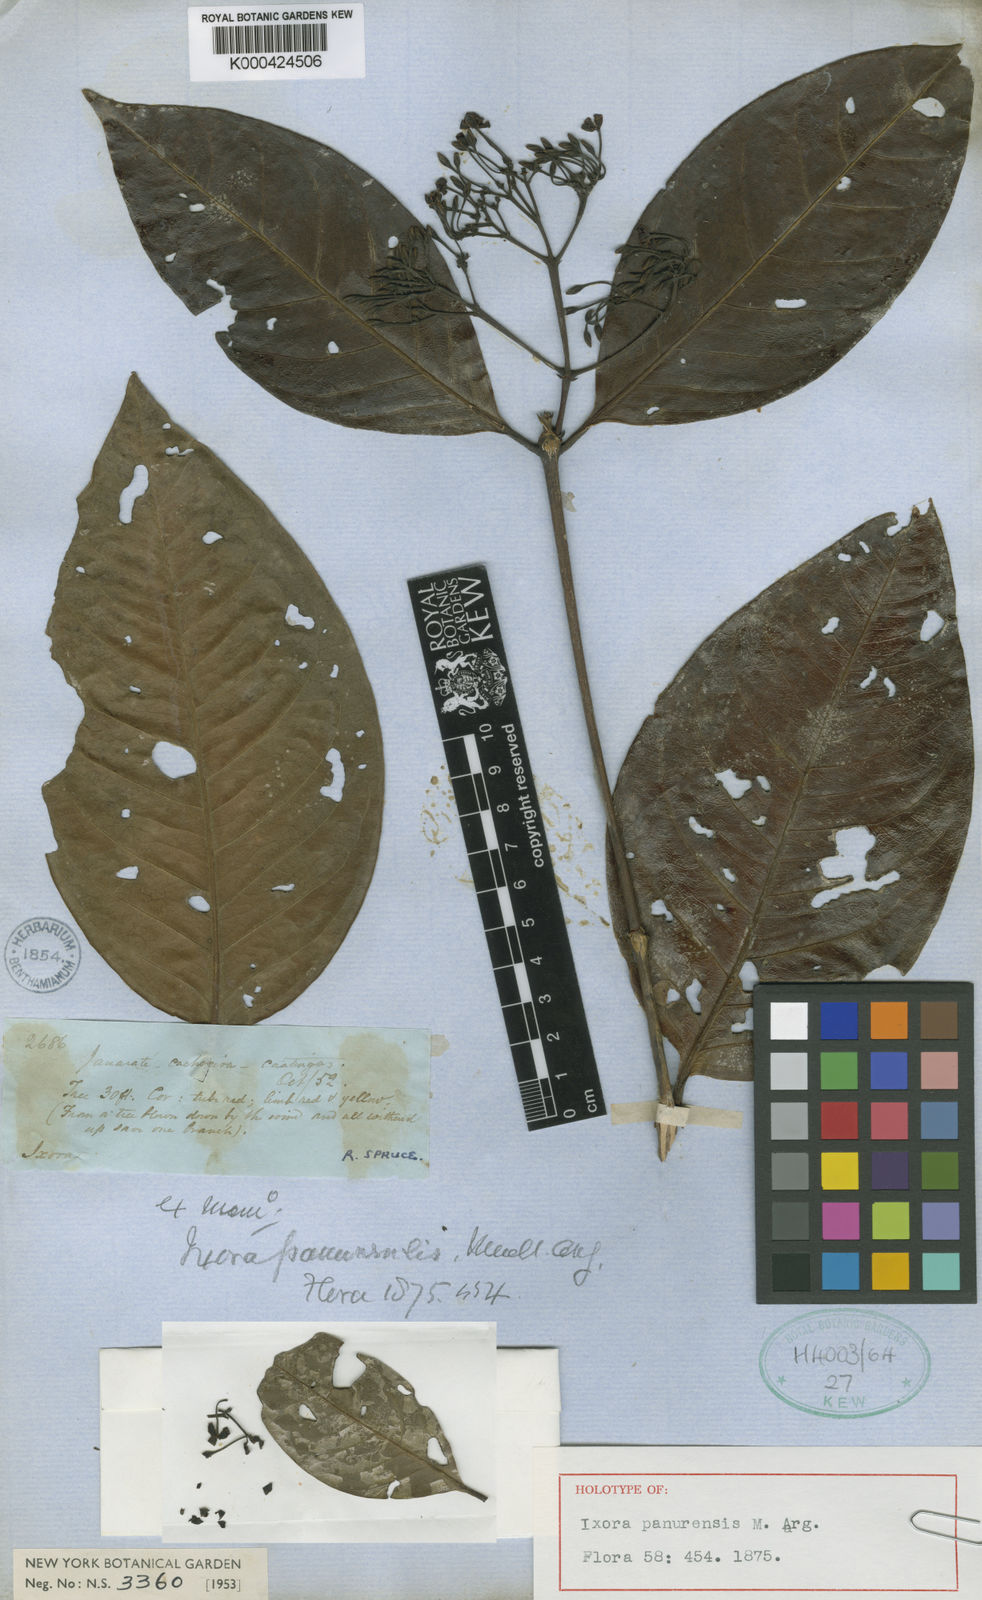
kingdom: Plantae
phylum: Tracheophyta
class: Magnoliopsida
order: Gentianales
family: Rubiaceae
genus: Ixora
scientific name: Ixora
